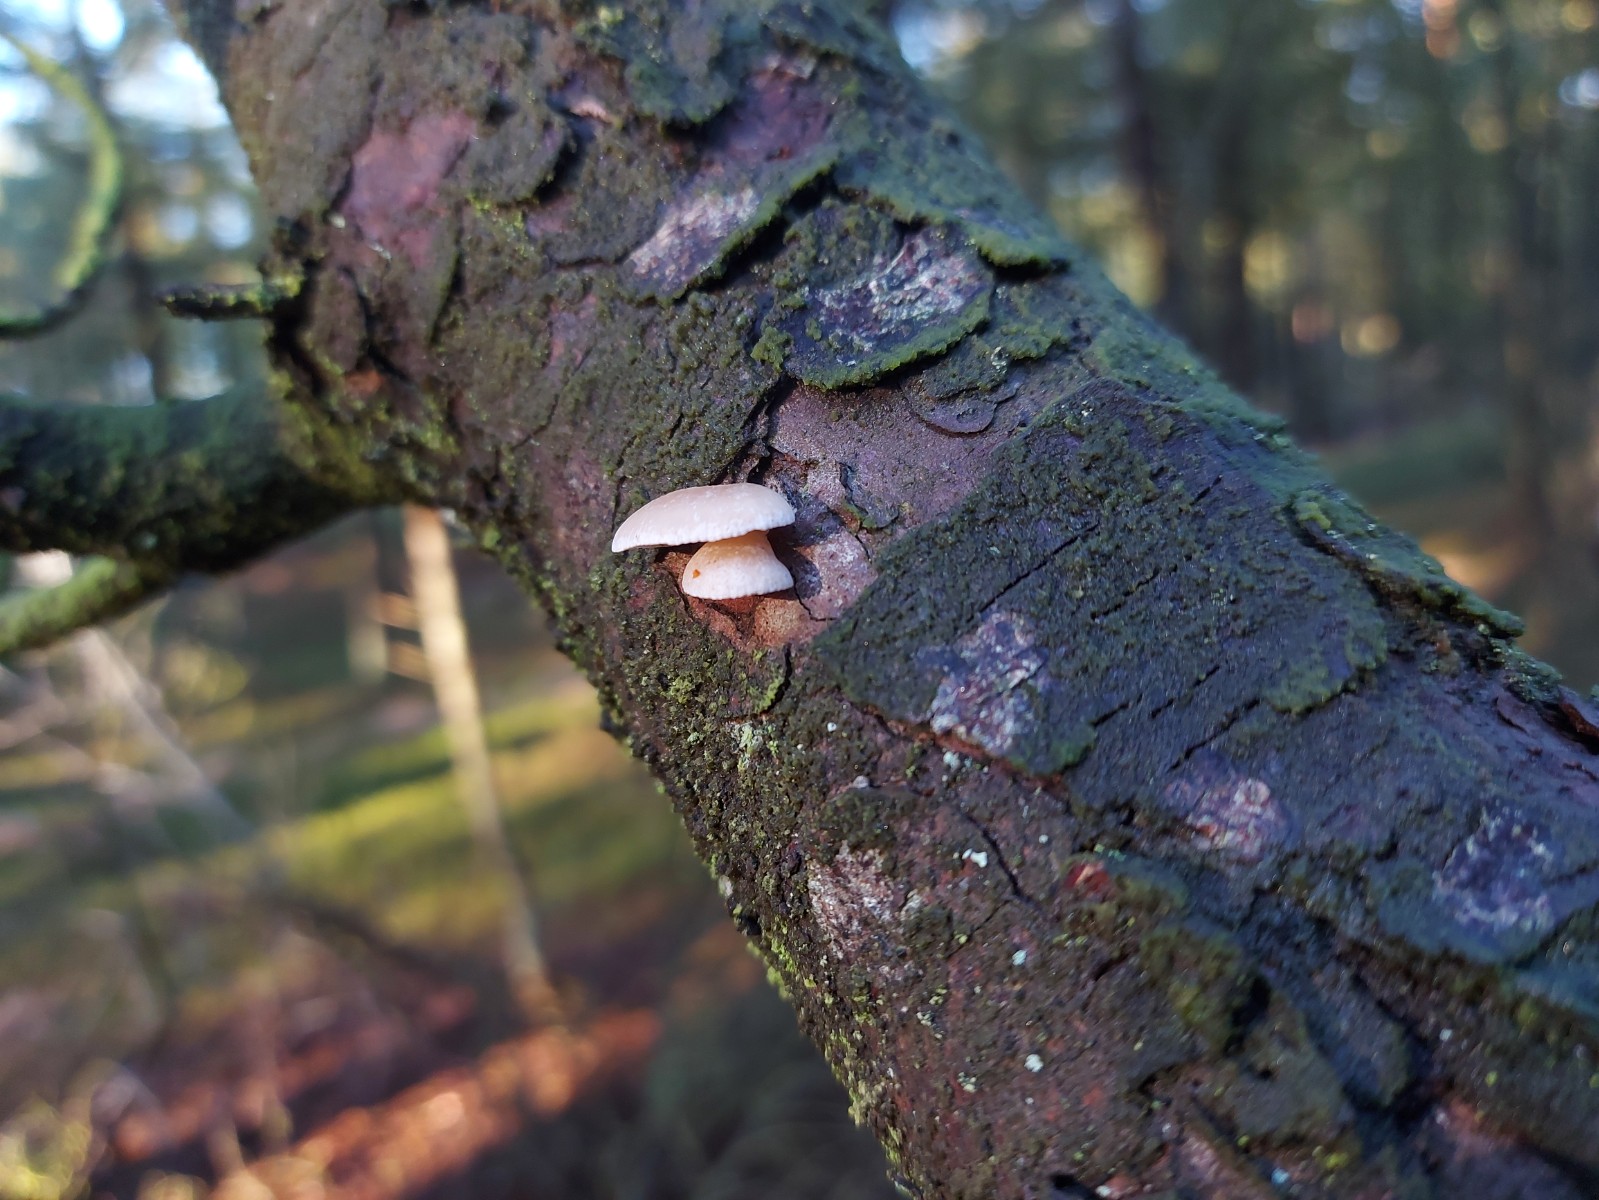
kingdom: Fungi
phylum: Basidiomycota
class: Agaricomycetes
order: Agaricales
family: Mycenaceae
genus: Panellus
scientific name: Panellus mitis
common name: mild epaulethat
